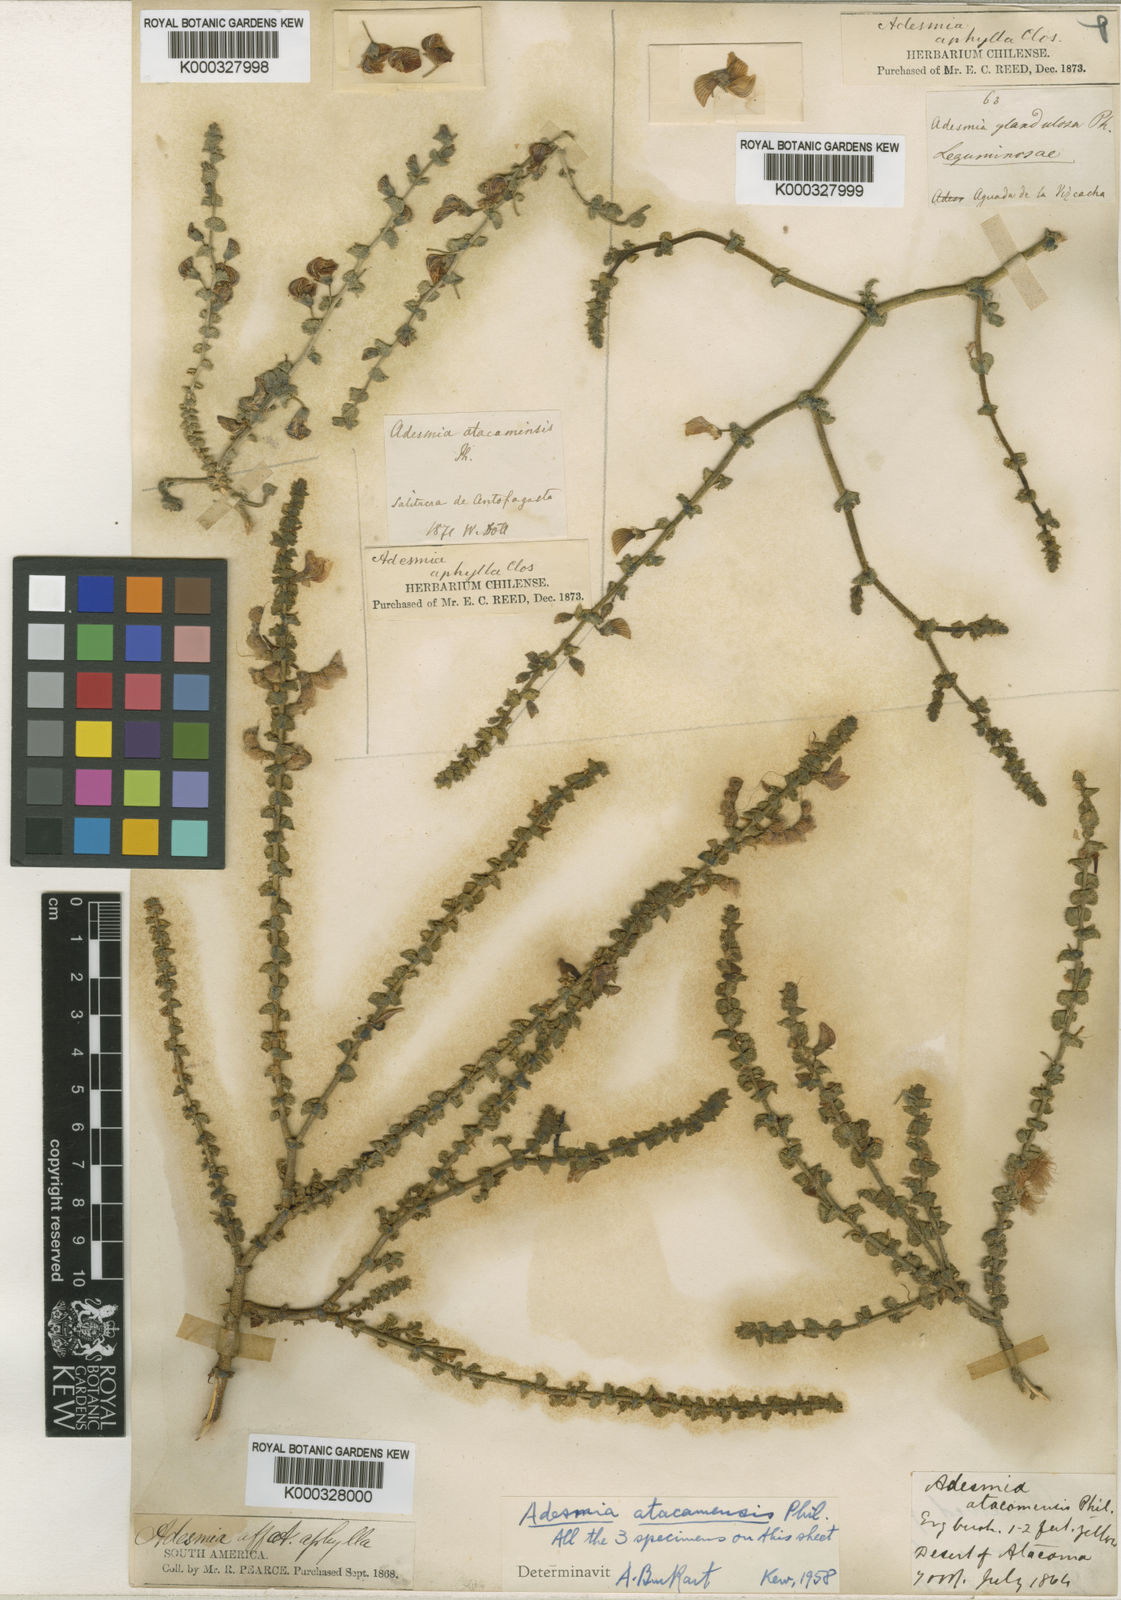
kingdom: Plantae
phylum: Tracheophyta
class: Magnoliopsida
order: Fabales
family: Fabaceae
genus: Adesmia
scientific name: Adesmia atacamensis
